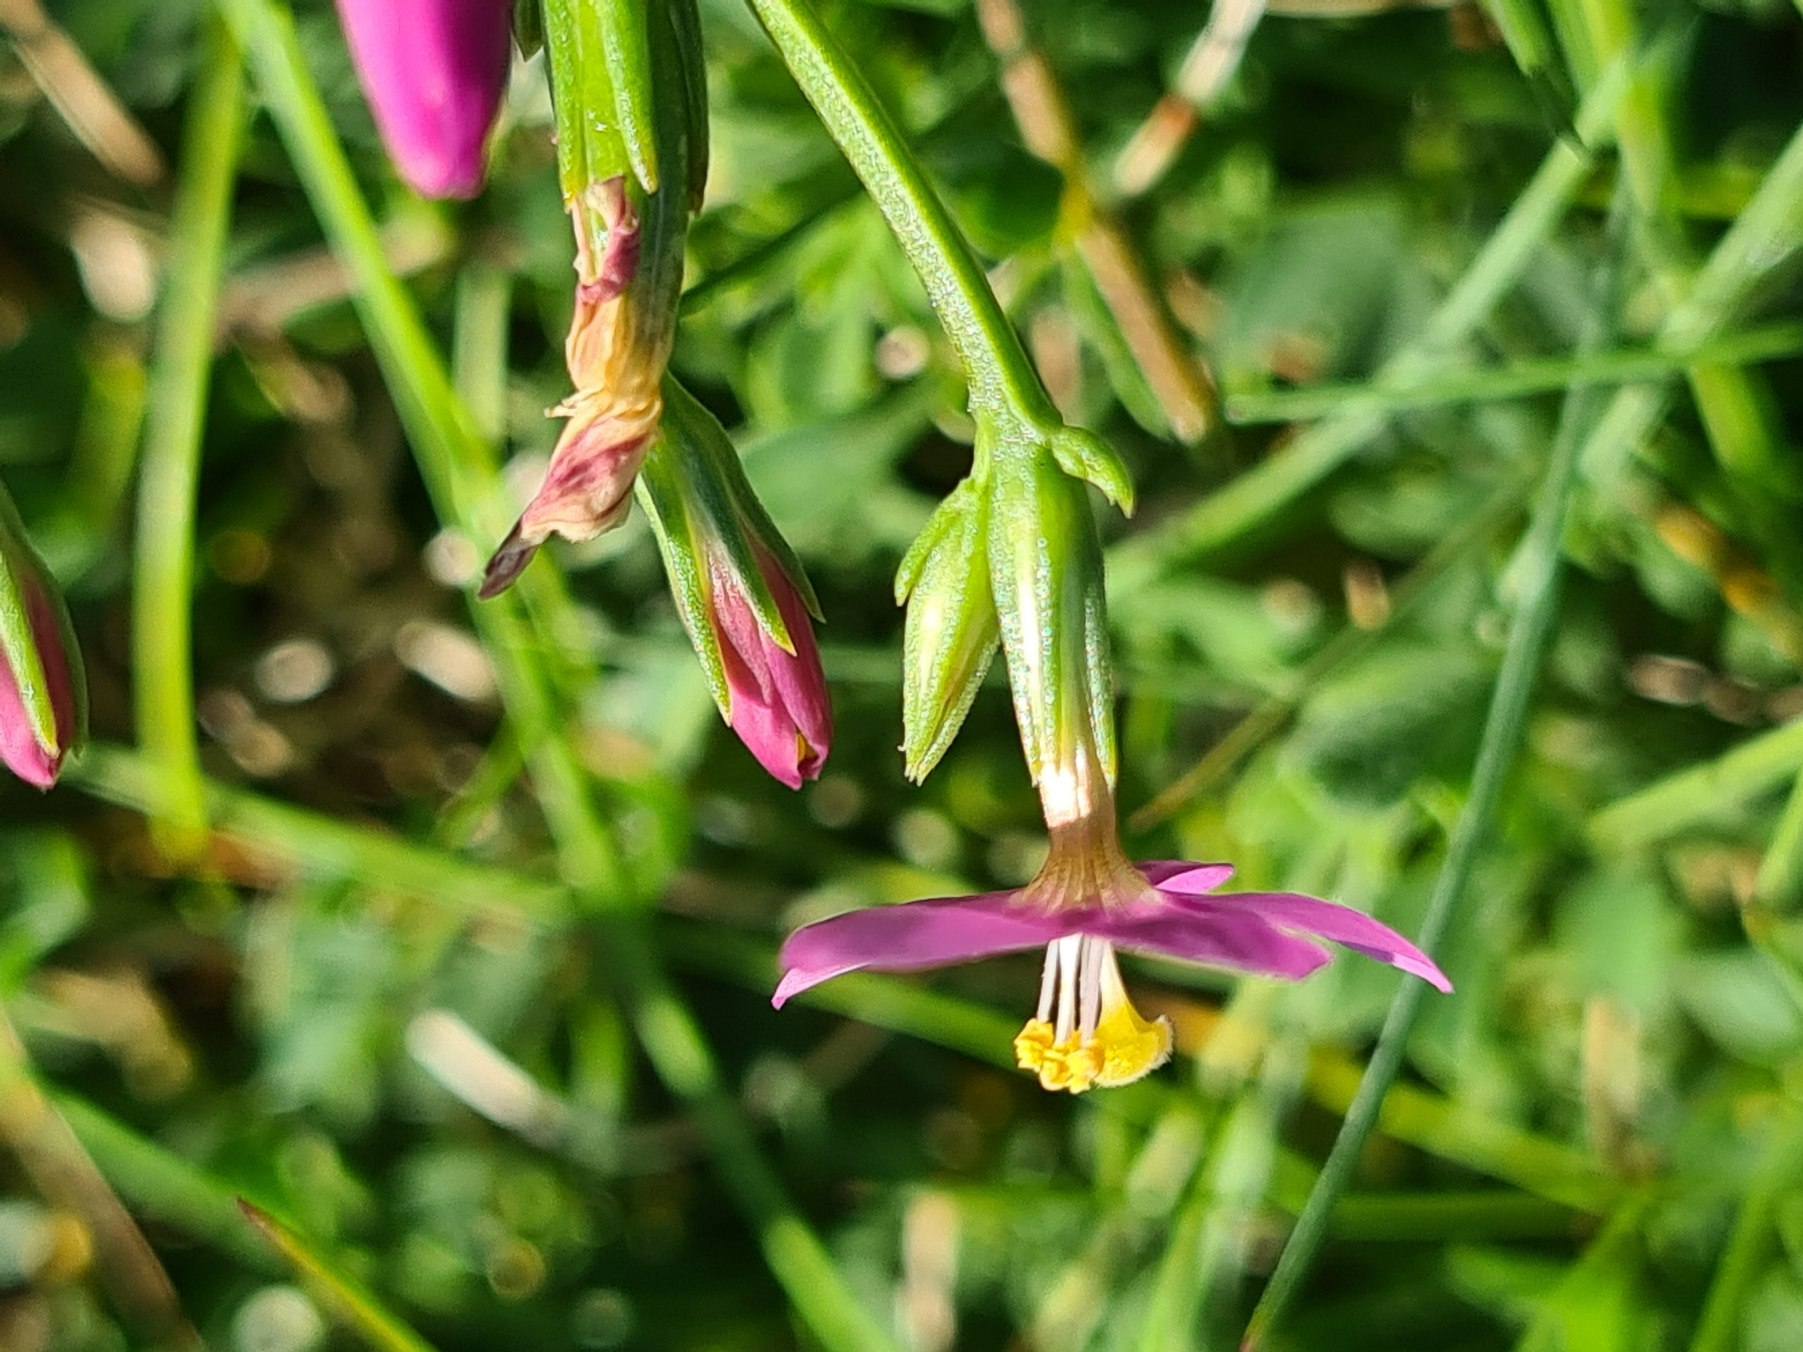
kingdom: Plantae
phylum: Tracheophyta
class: Magnoliopsida
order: Gentianales
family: Gentianaceae
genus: Centaurium
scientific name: Centaurium littorale
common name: Strand-tusindgylden
